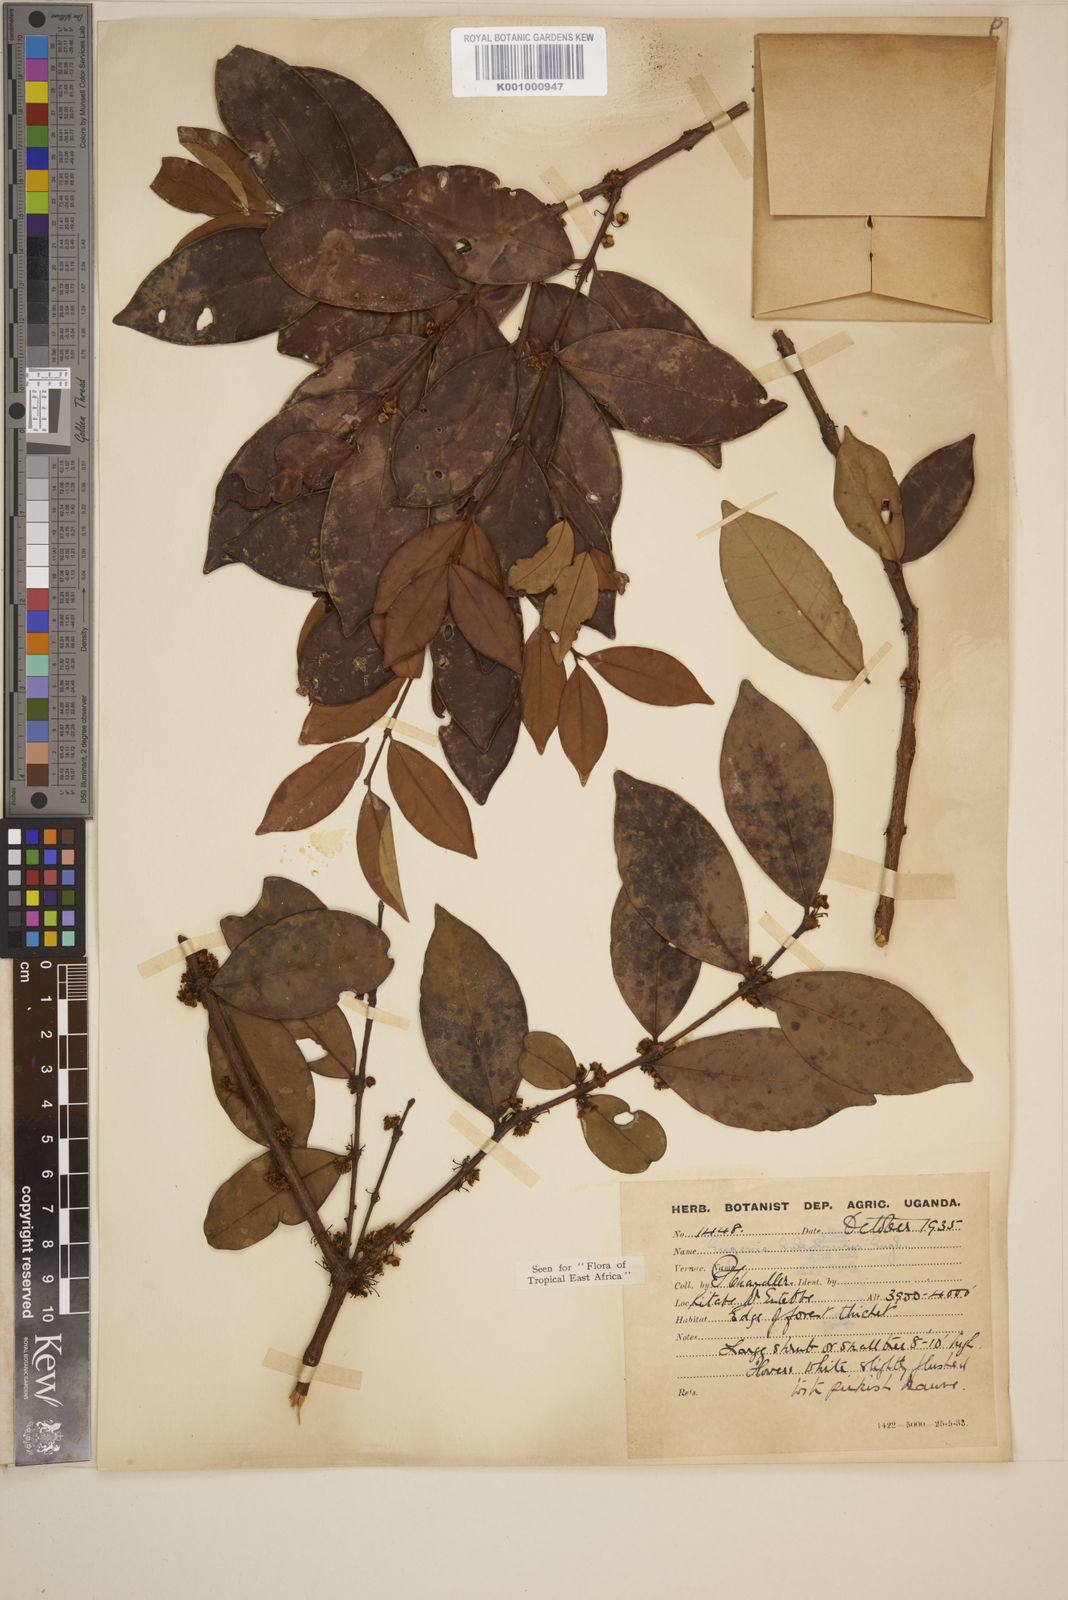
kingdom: Plantae
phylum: Tracheophyta
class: Magnoliopsida
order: Myrtales
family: Myrtaceae
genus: Eugenia
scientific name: Eugenia bukobensis
